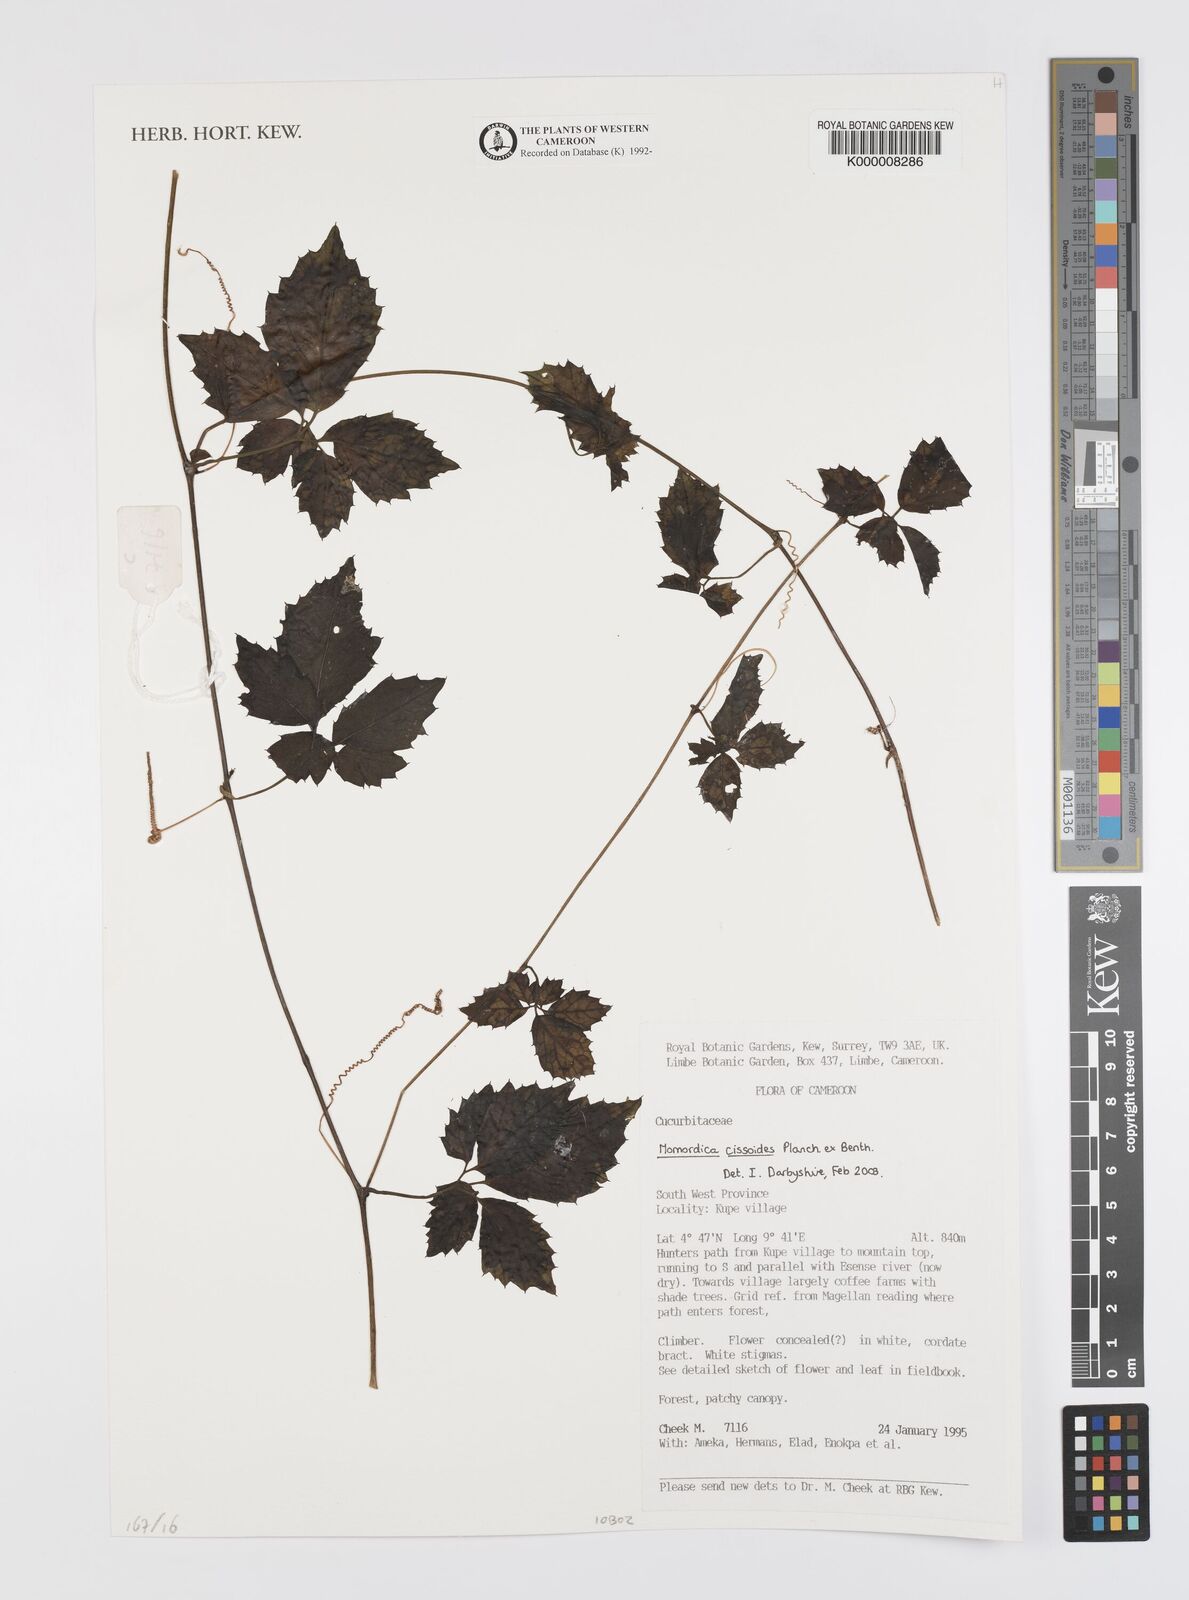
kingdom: Plantae
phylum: Tracheophyta
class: Magnoliopsida
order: Cucurbitales
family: Cucurbitaceae
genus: Momordica
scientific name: Momordica cissoides
